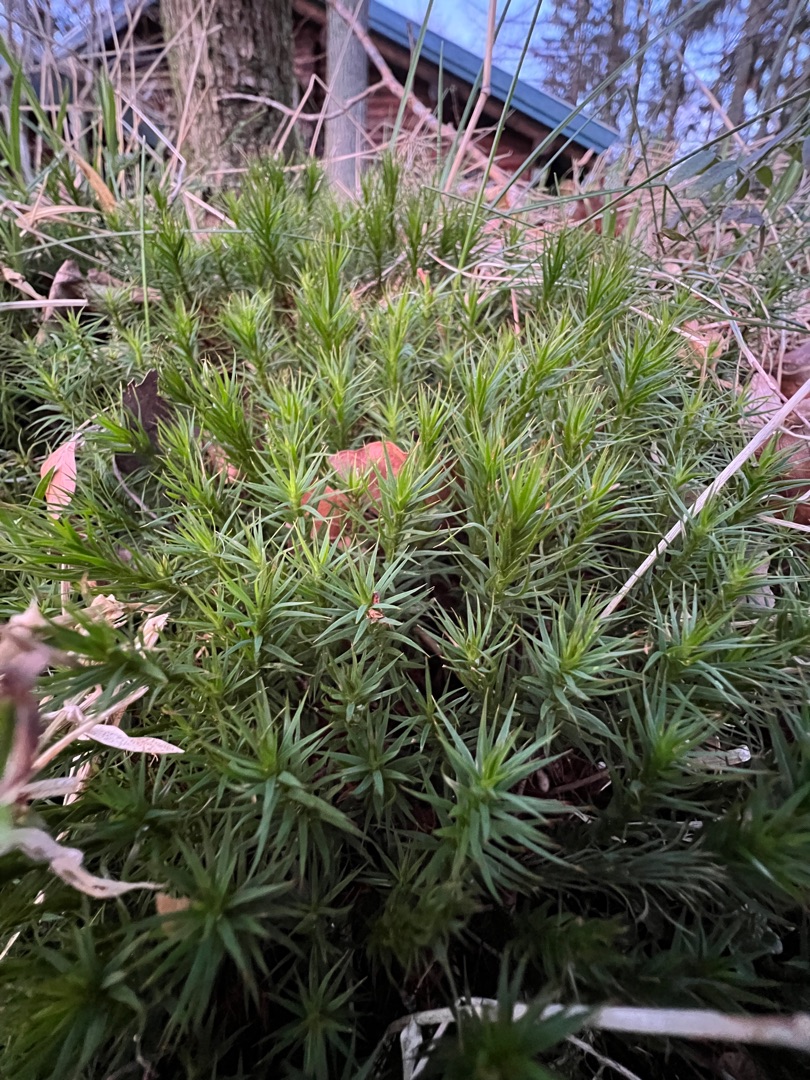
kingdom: Plantae
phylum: Bryophyta
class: Polytrichopsida
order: Polytrichales
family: Polytrichaceae
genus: Polytrichum
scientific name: Polytrichum formosum
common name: Skov-jomfruhår
